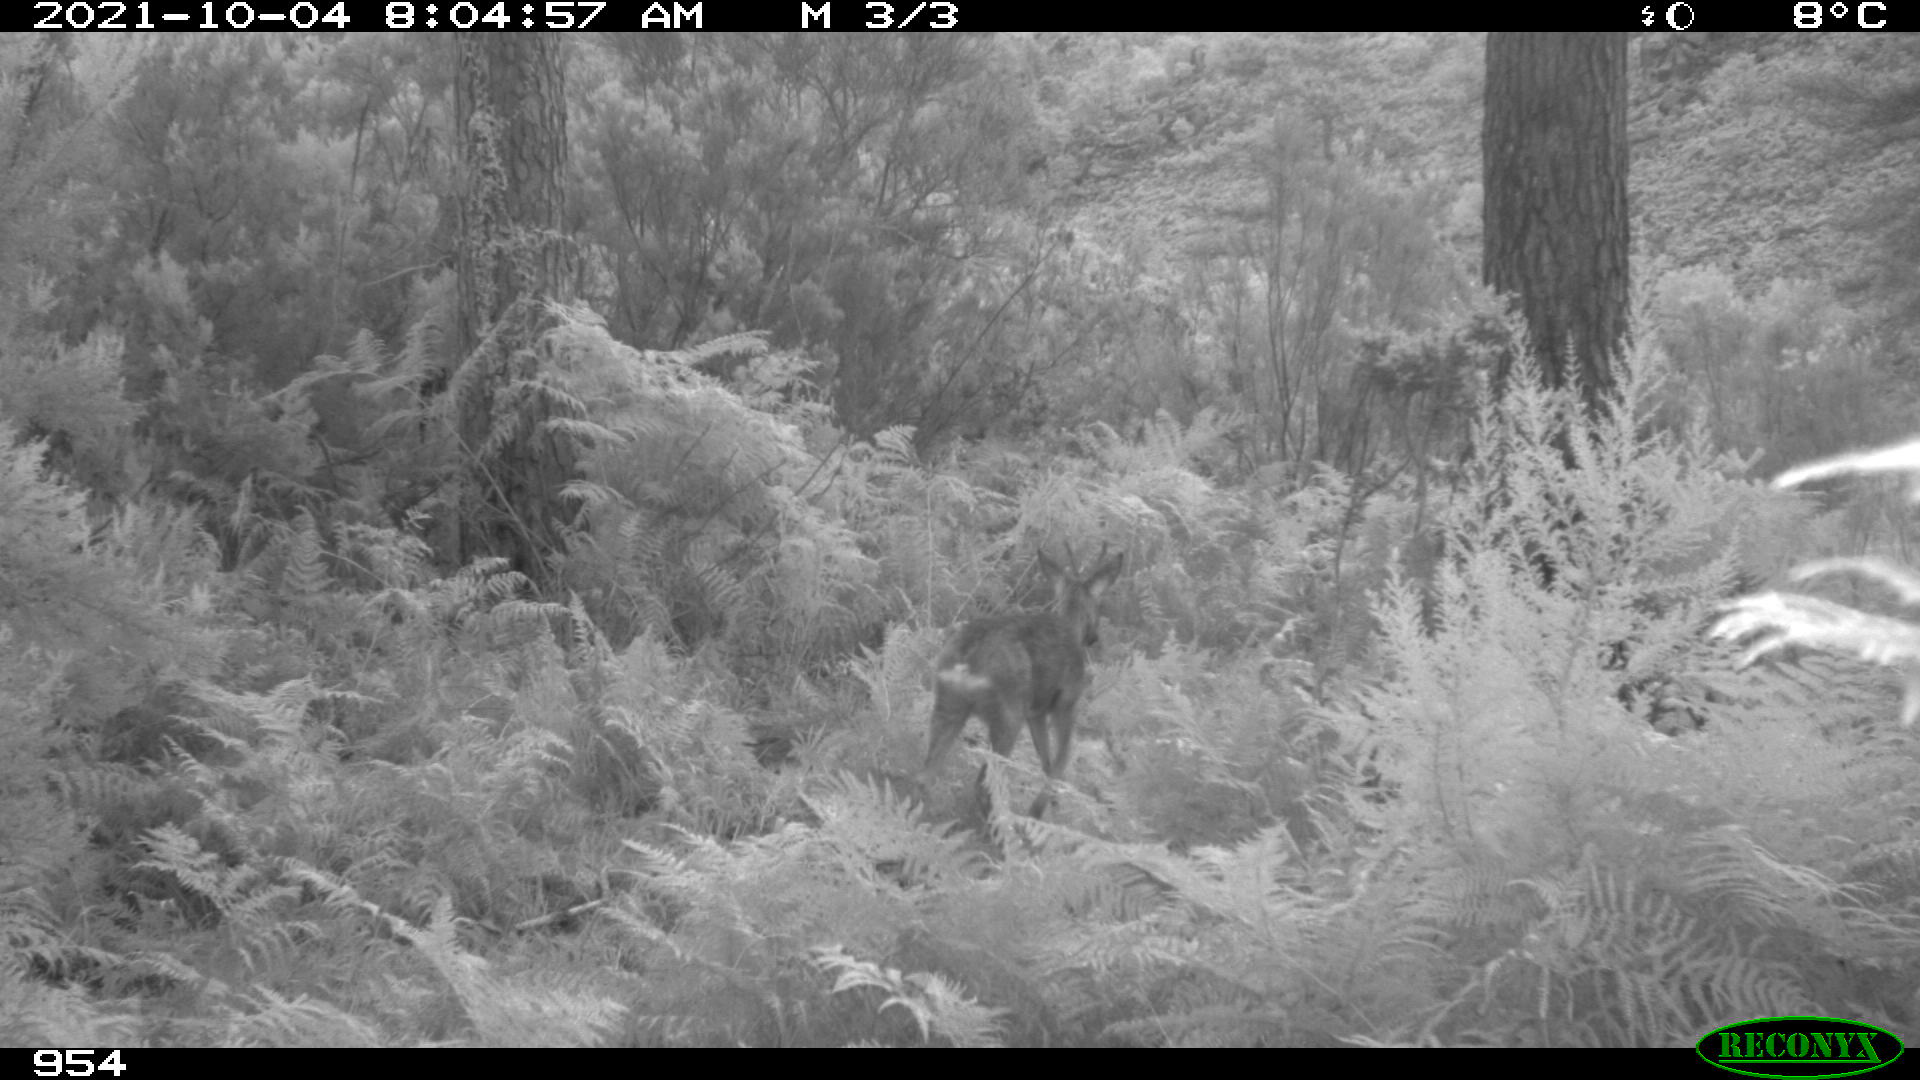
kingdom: Animalia
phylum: Chordata
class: Mammalia
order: Artiodactyla
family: Cervidae
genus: Capreolus
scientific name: Capreolus capreolus
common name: Western roe deer
